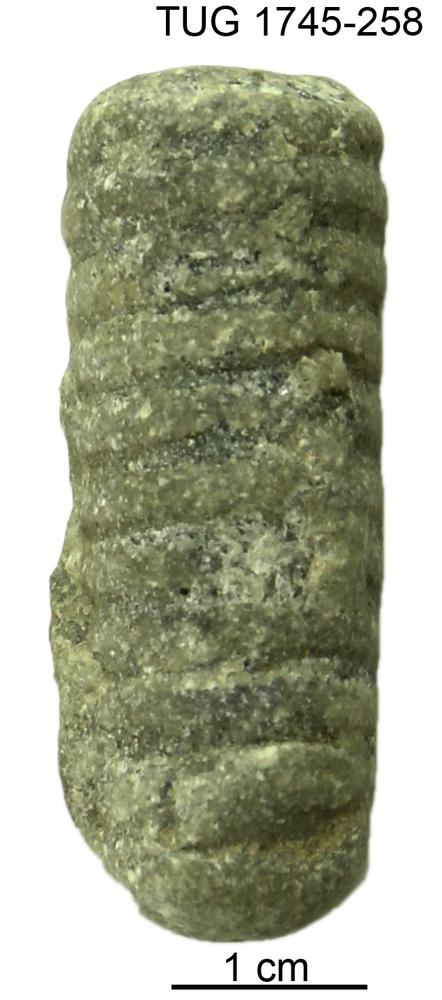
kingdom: Animalia
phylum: Mollusca
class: Cephalopoda
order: Orthocerida
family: Pseudorthoceratidae
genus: Spyroceras
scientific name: Spyroceras
